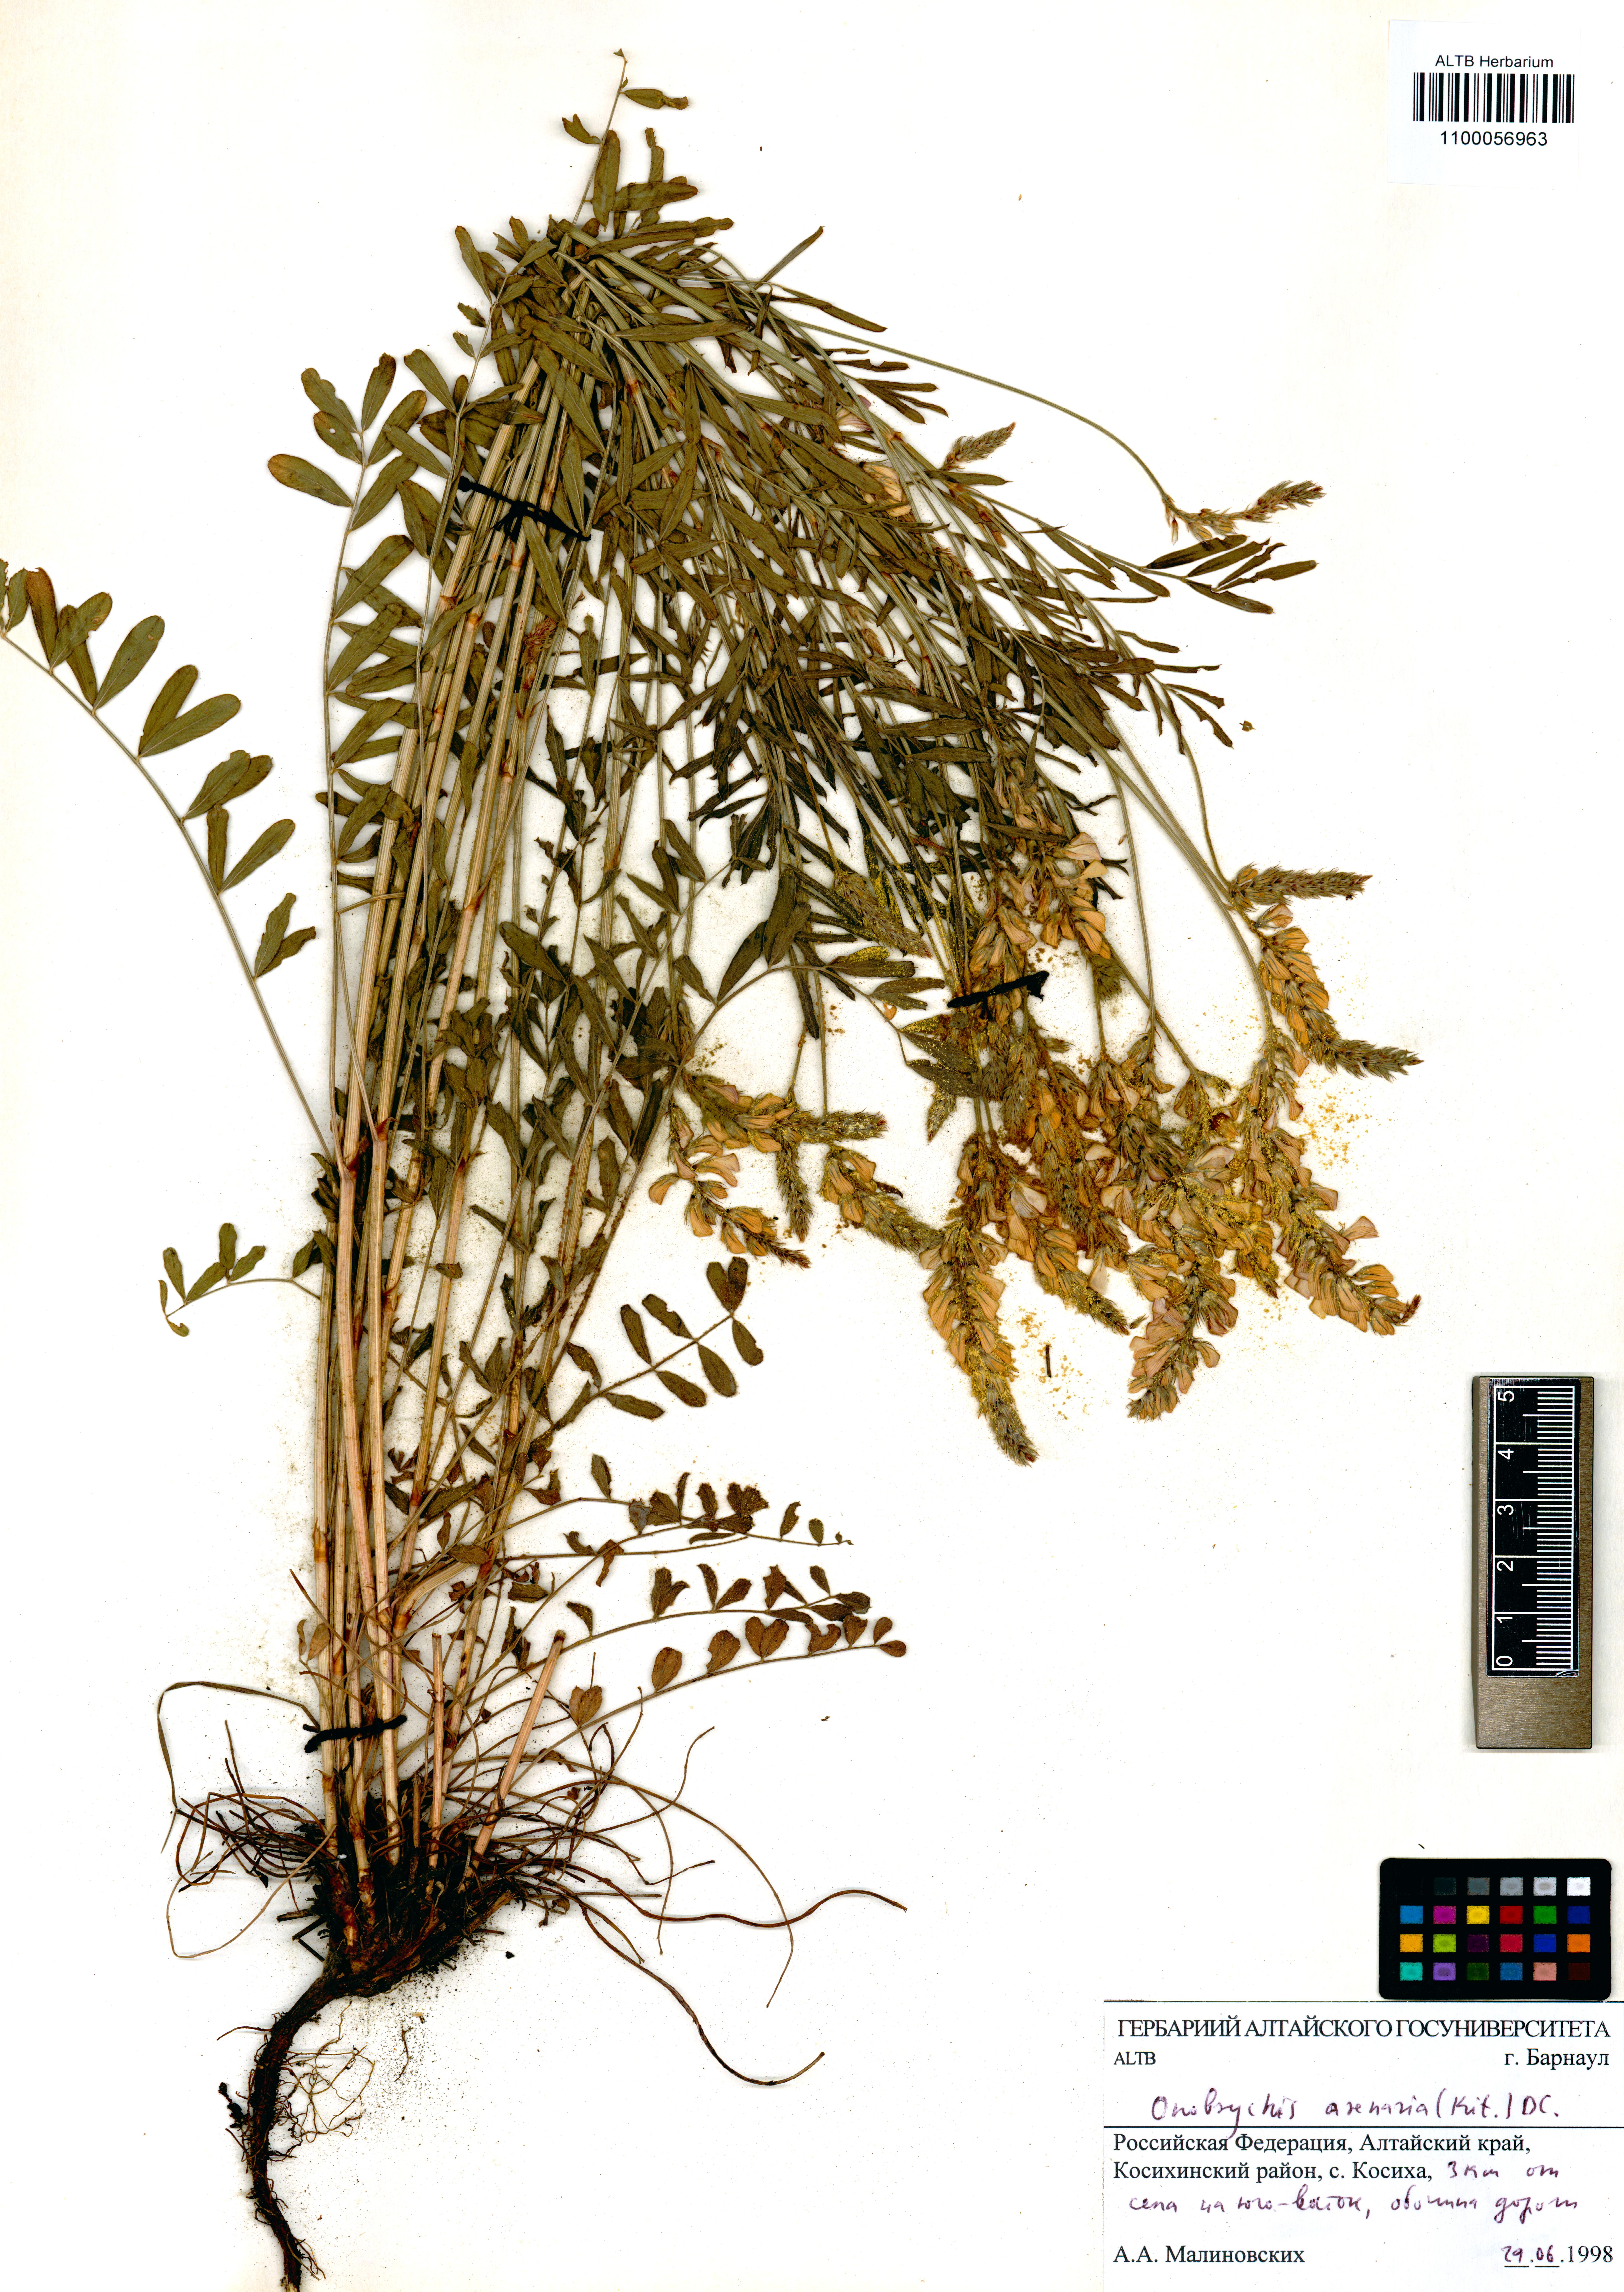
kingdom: Plantae
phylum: Tracheophyta
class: Magnoliopsida
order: Fabales
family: Fabaceae
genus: Onobrychis
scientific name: Onobrychis arenaria
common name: Sand esparcet
